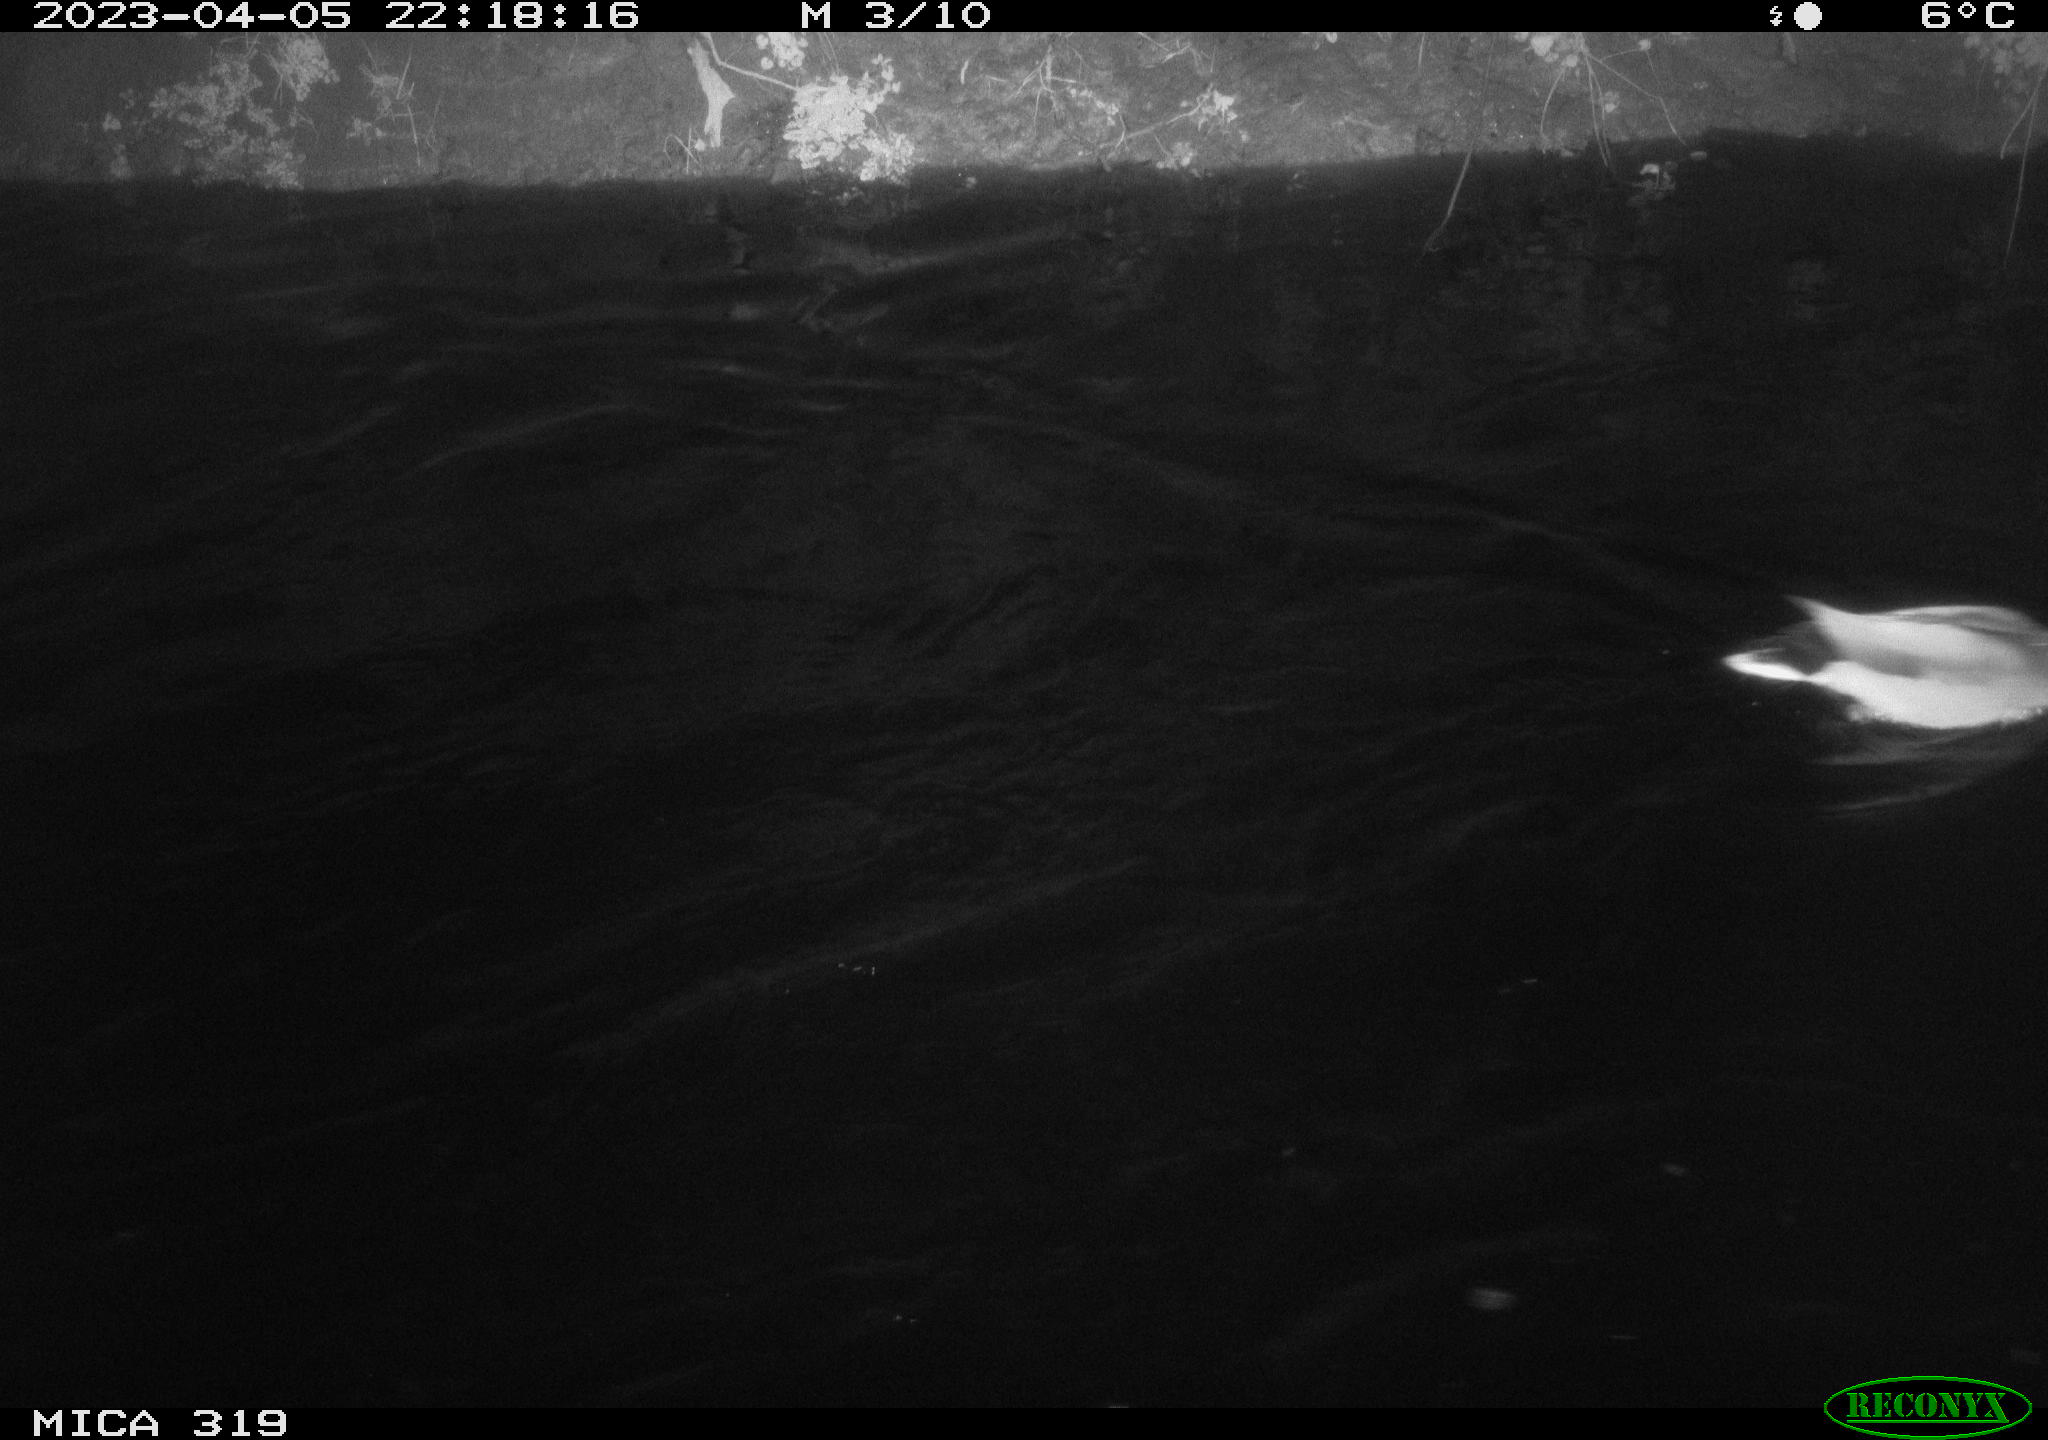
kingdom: Animalia
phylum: Chordata
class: Aves
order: Anseriformes
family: Anatidae
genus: Anas
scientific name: Anas
